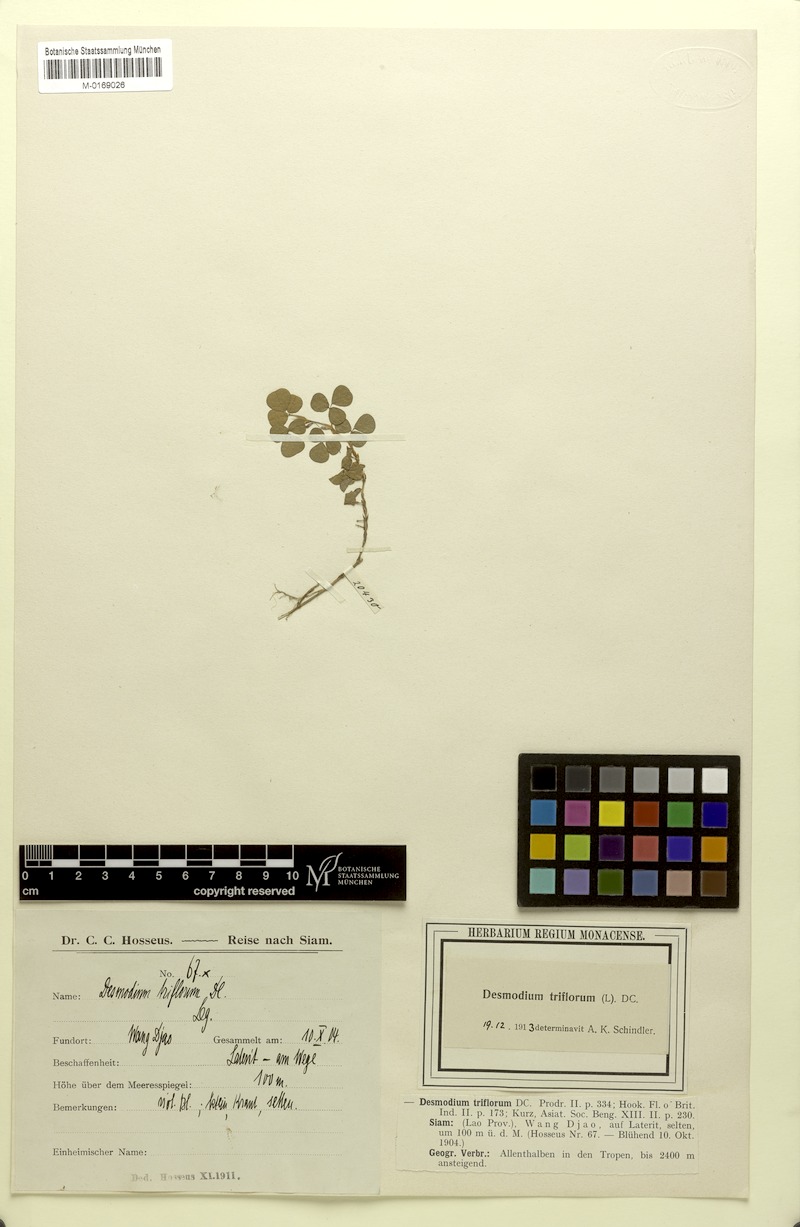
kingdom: Plantae
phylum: Tracheophyta
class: Magnoliopsida
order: Fabales
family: Fabaceae
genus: Grona
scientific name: Grona triflora
